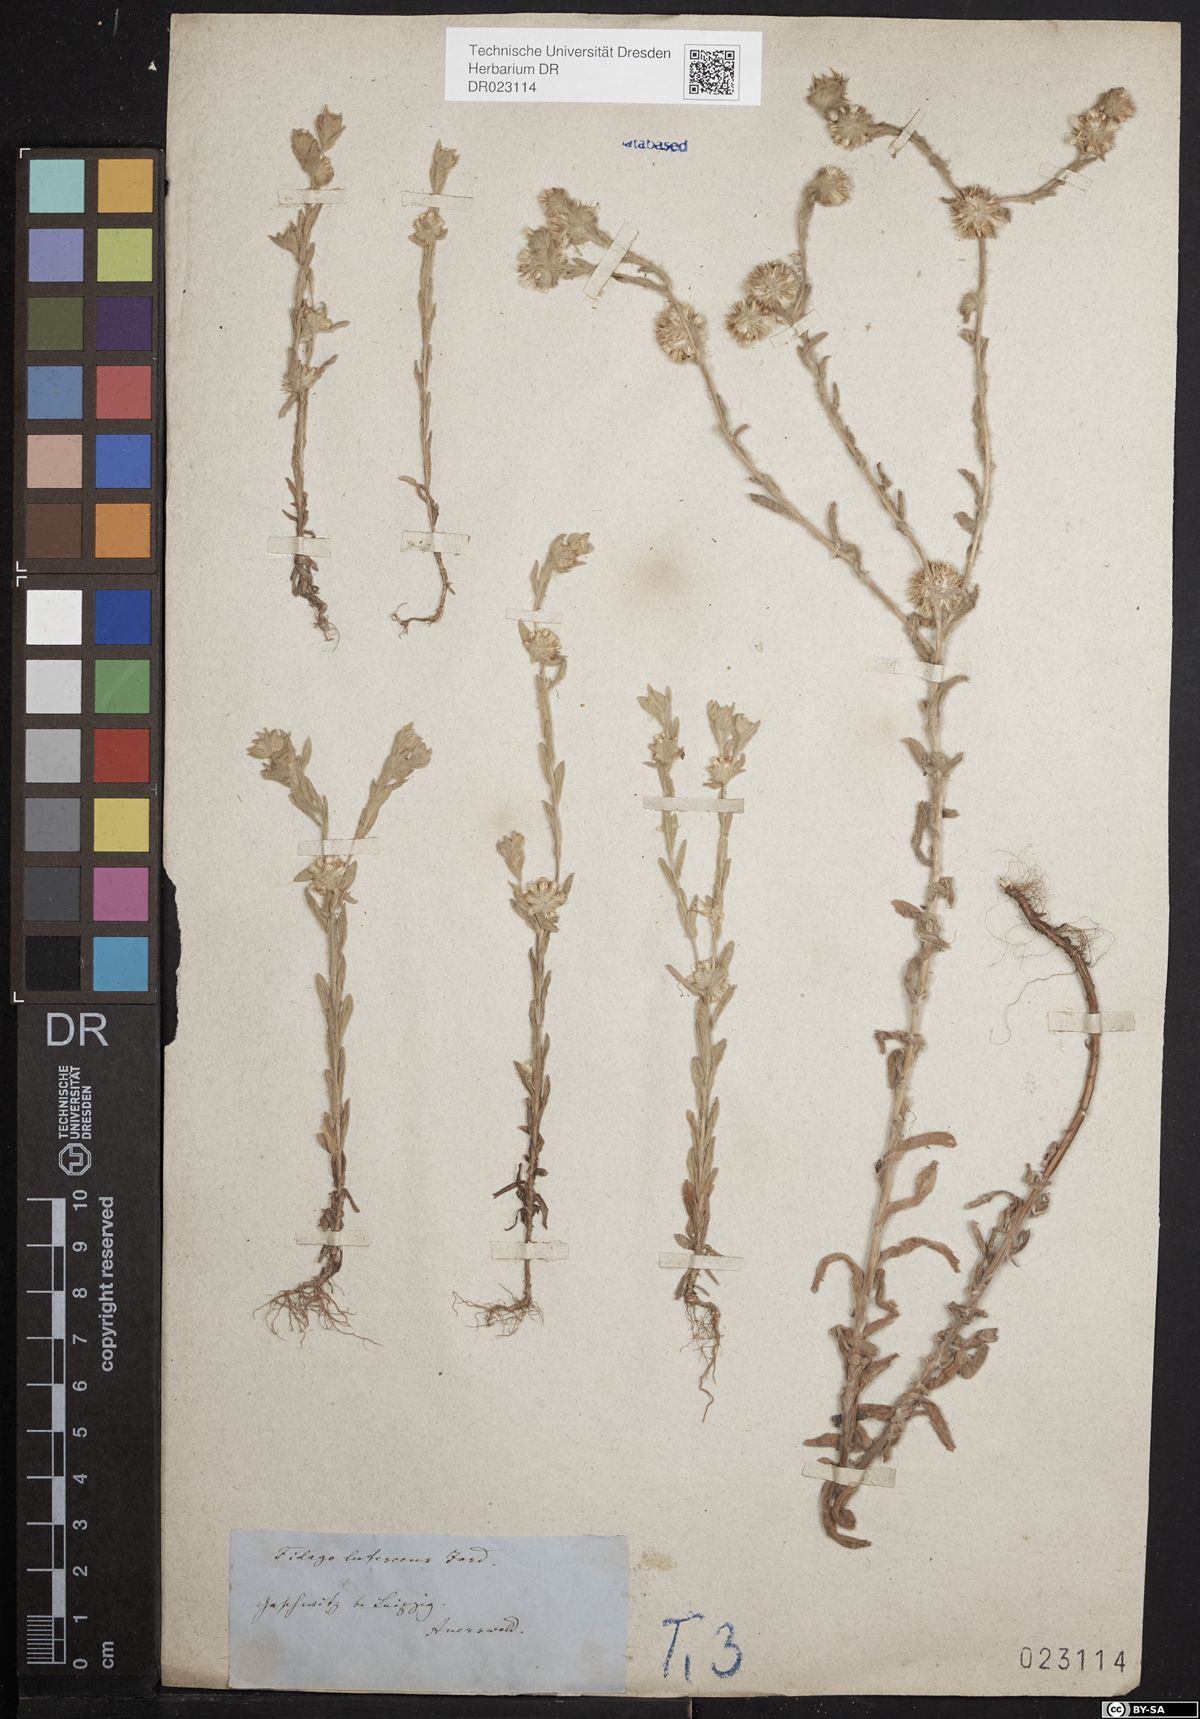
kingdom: Plantae
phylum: Tracheophyta
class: Magnoliopsida
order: Asterales
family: Asteraceae
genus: Filago
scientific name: Filago germanica
